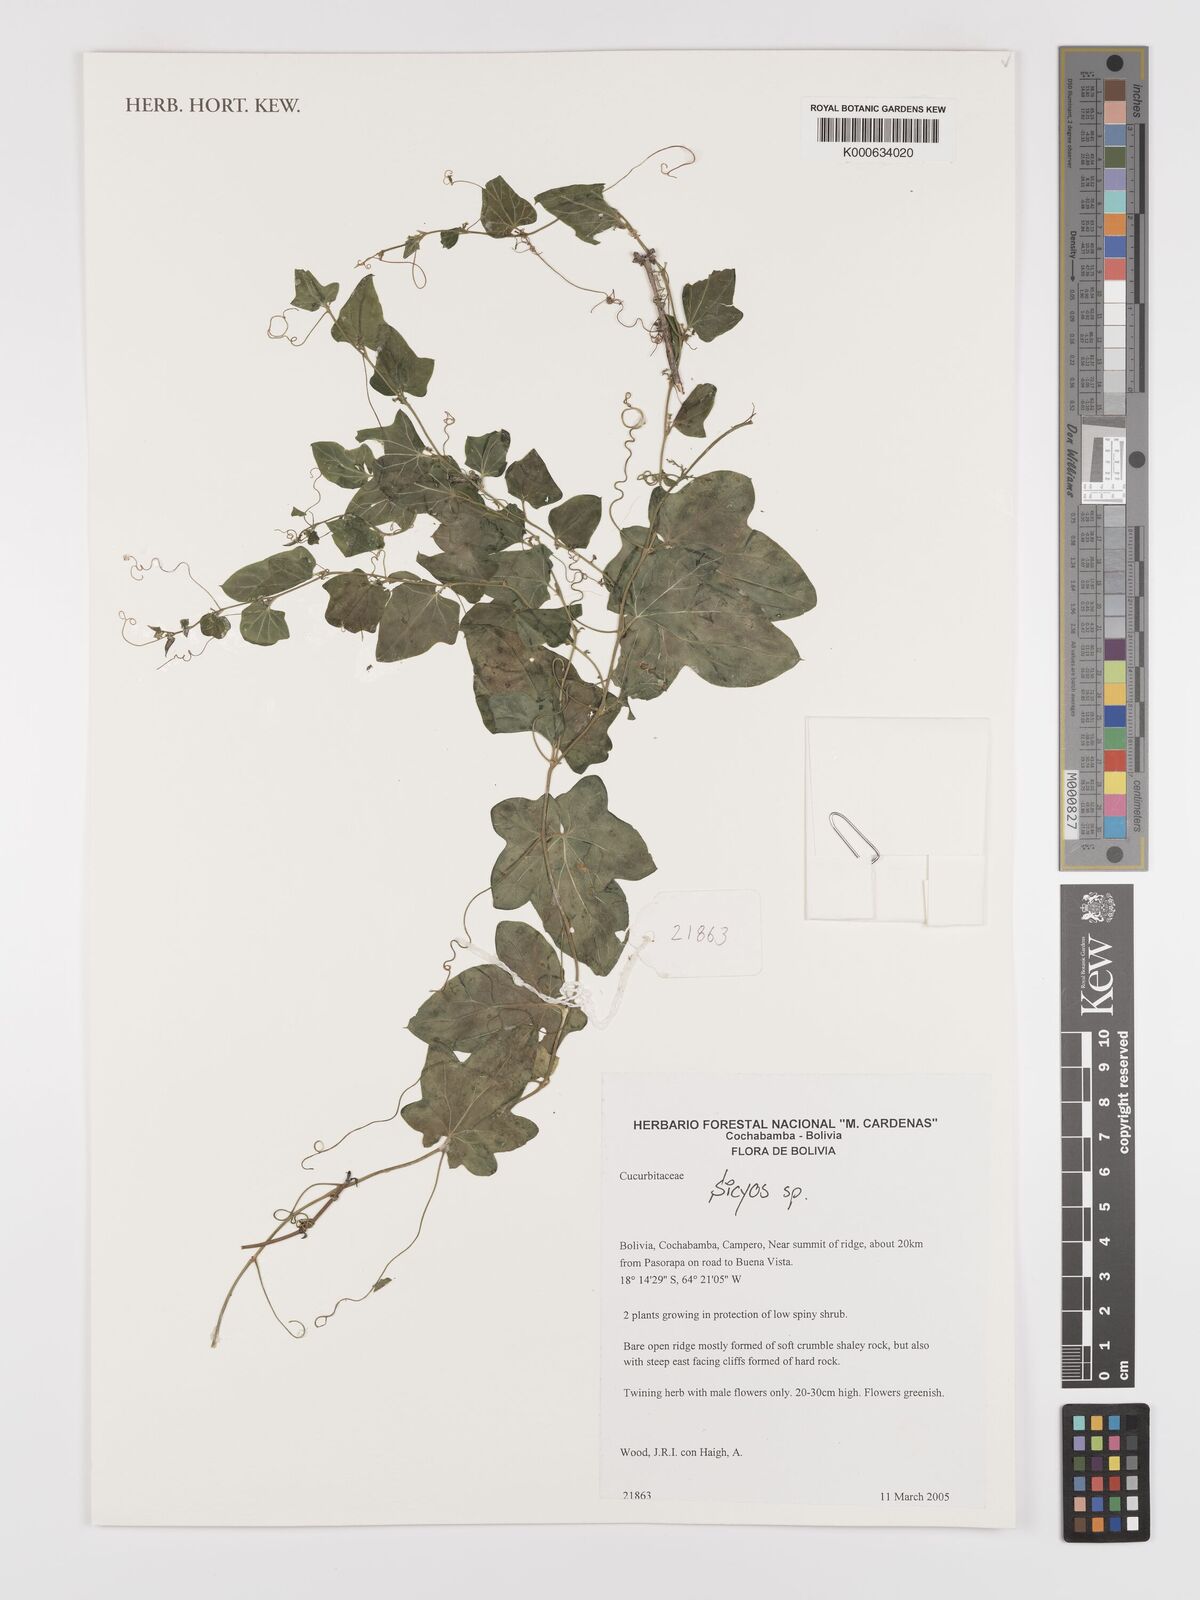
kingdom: Plantae
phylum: Tracheophyta
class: Magnoliopsida
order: Cucurbitales
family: Cucurbitaceae
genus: Sicyos
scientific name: Sicyos
